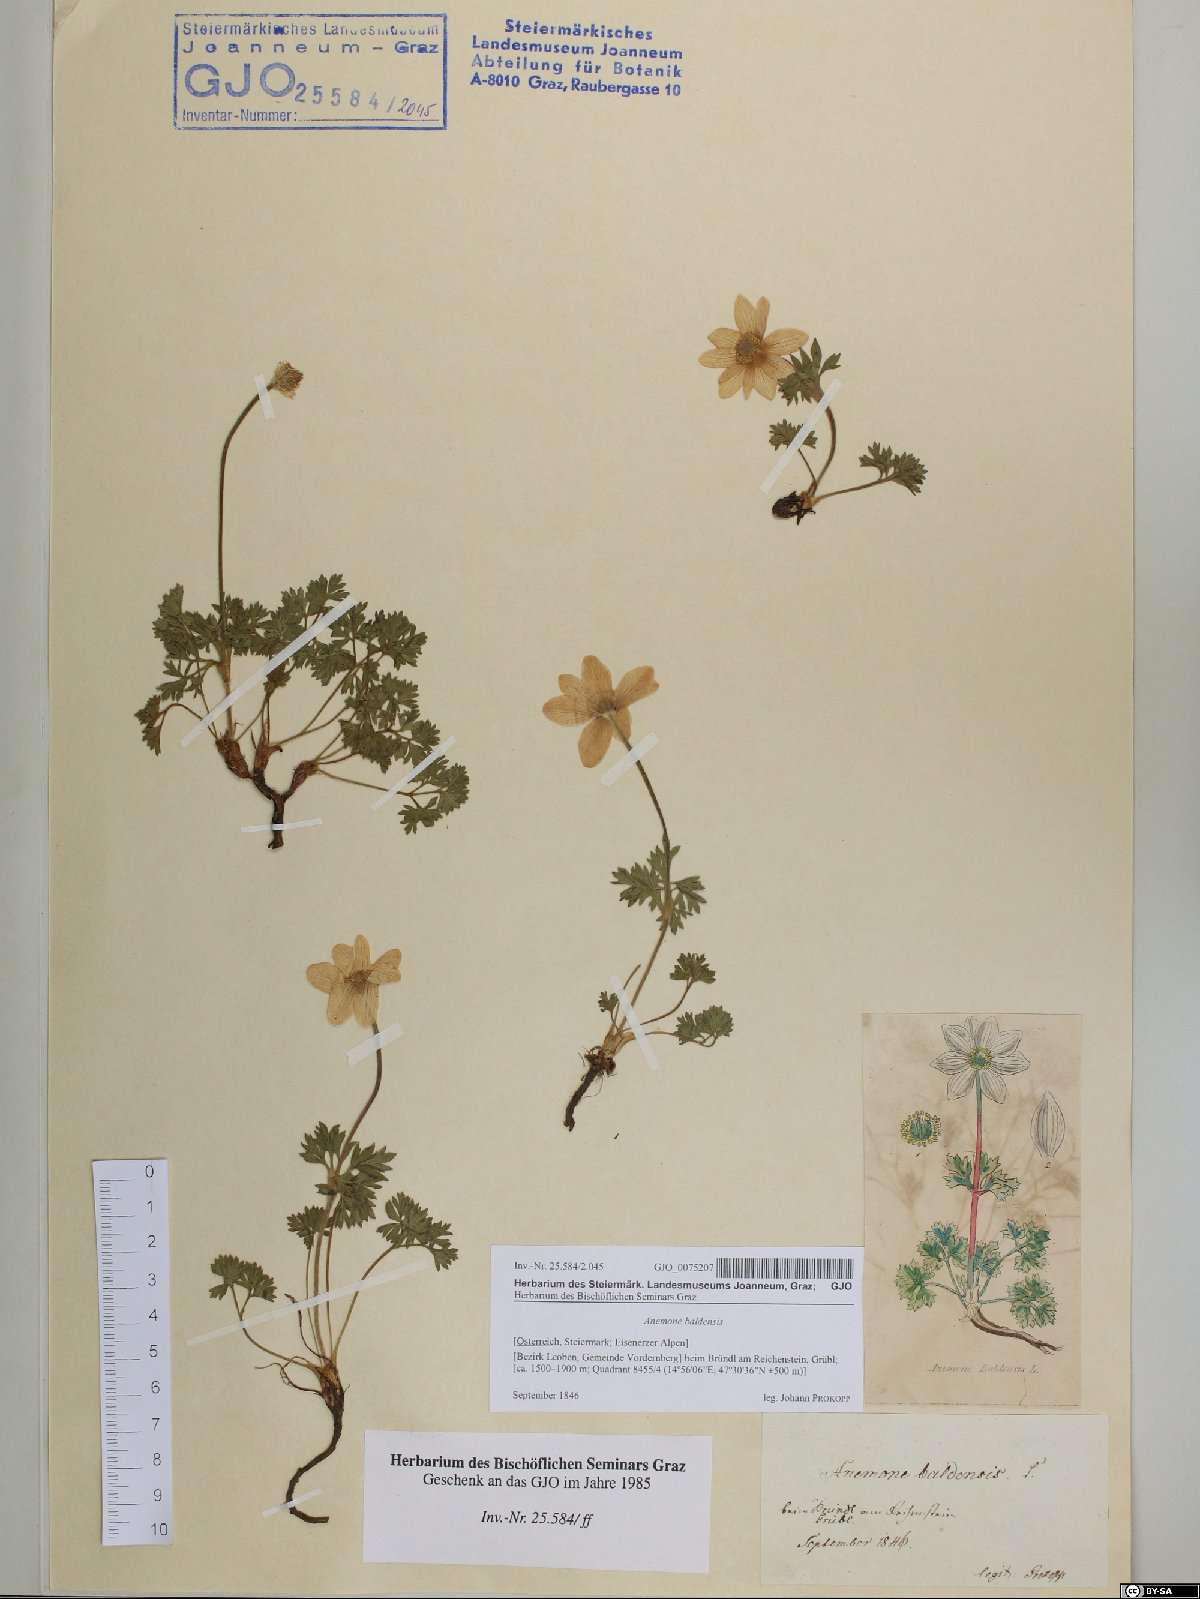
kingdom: Plantae
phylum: Tracheophyta
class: Magnoliopsida
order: Ranunculales
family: Ranunculaceae
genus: Anemone
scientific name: Anemone baldensis
